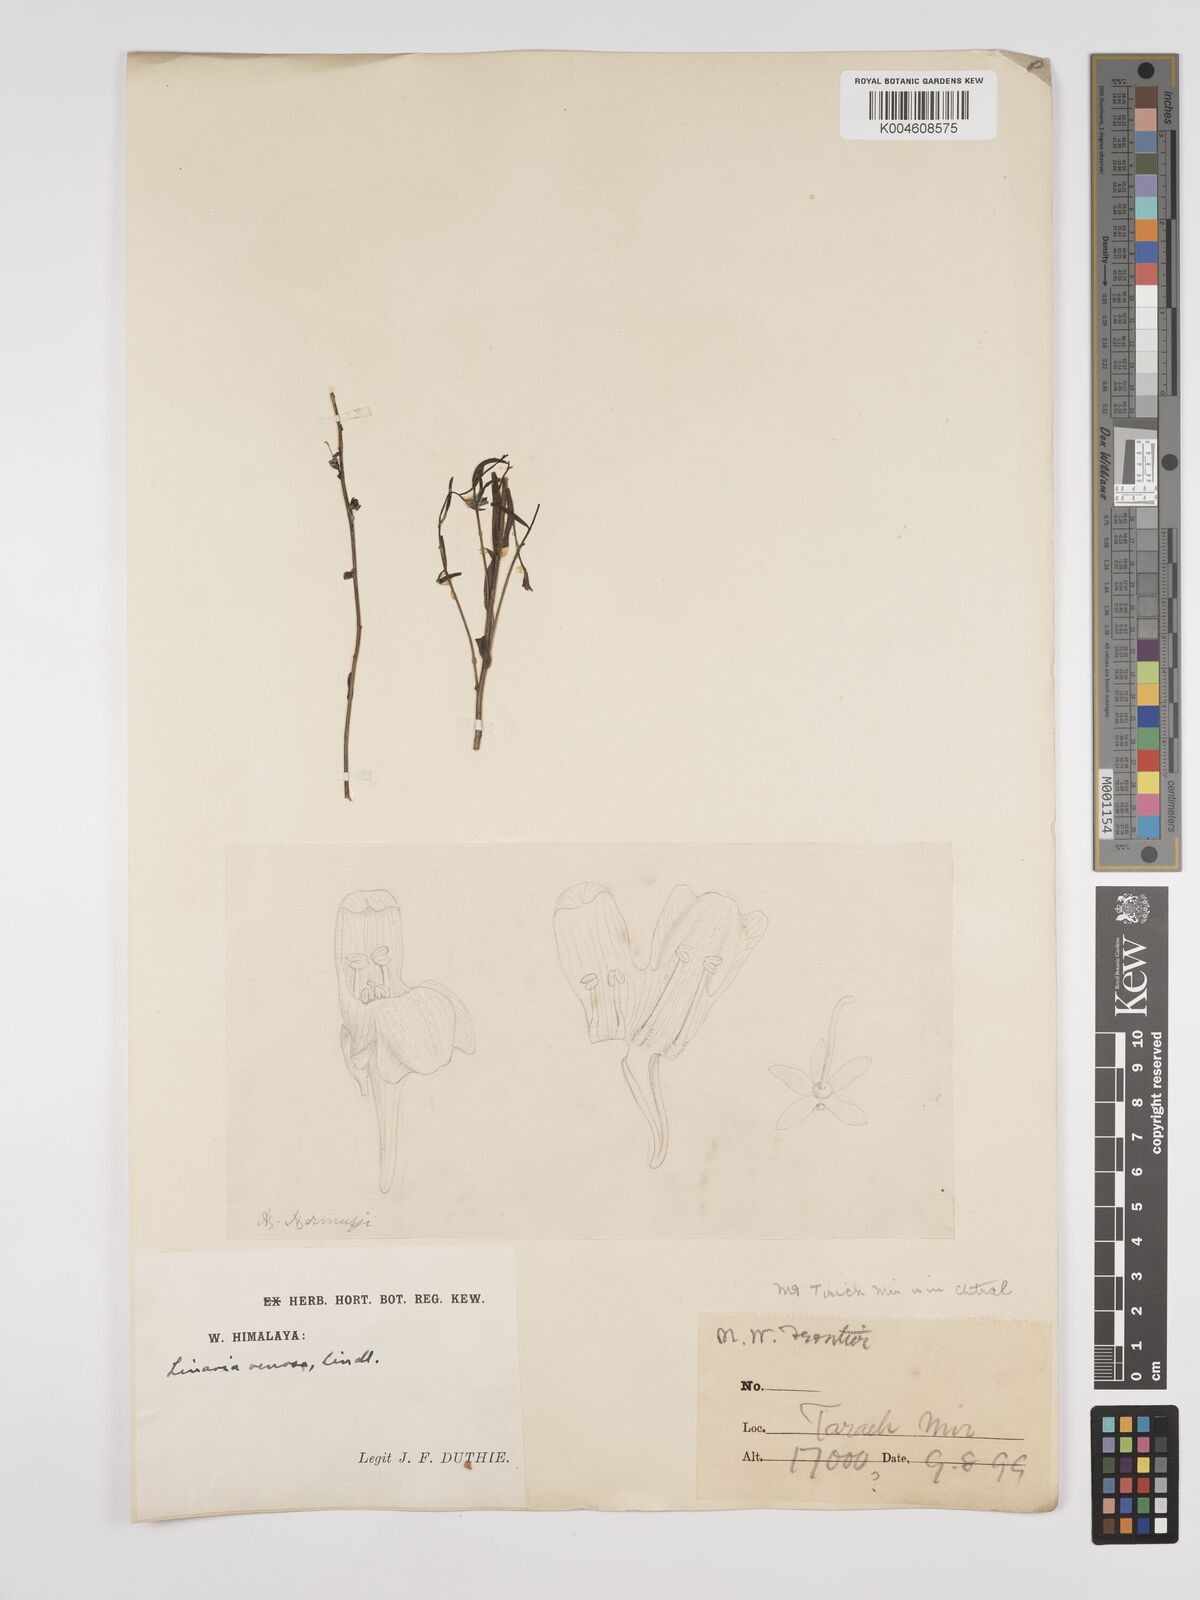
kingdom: Plantae
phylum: Tracheophyta
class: Magnoliopsida
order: Lamiales
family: Plantaginaceae
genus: Kickxia
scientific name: Kickxia
